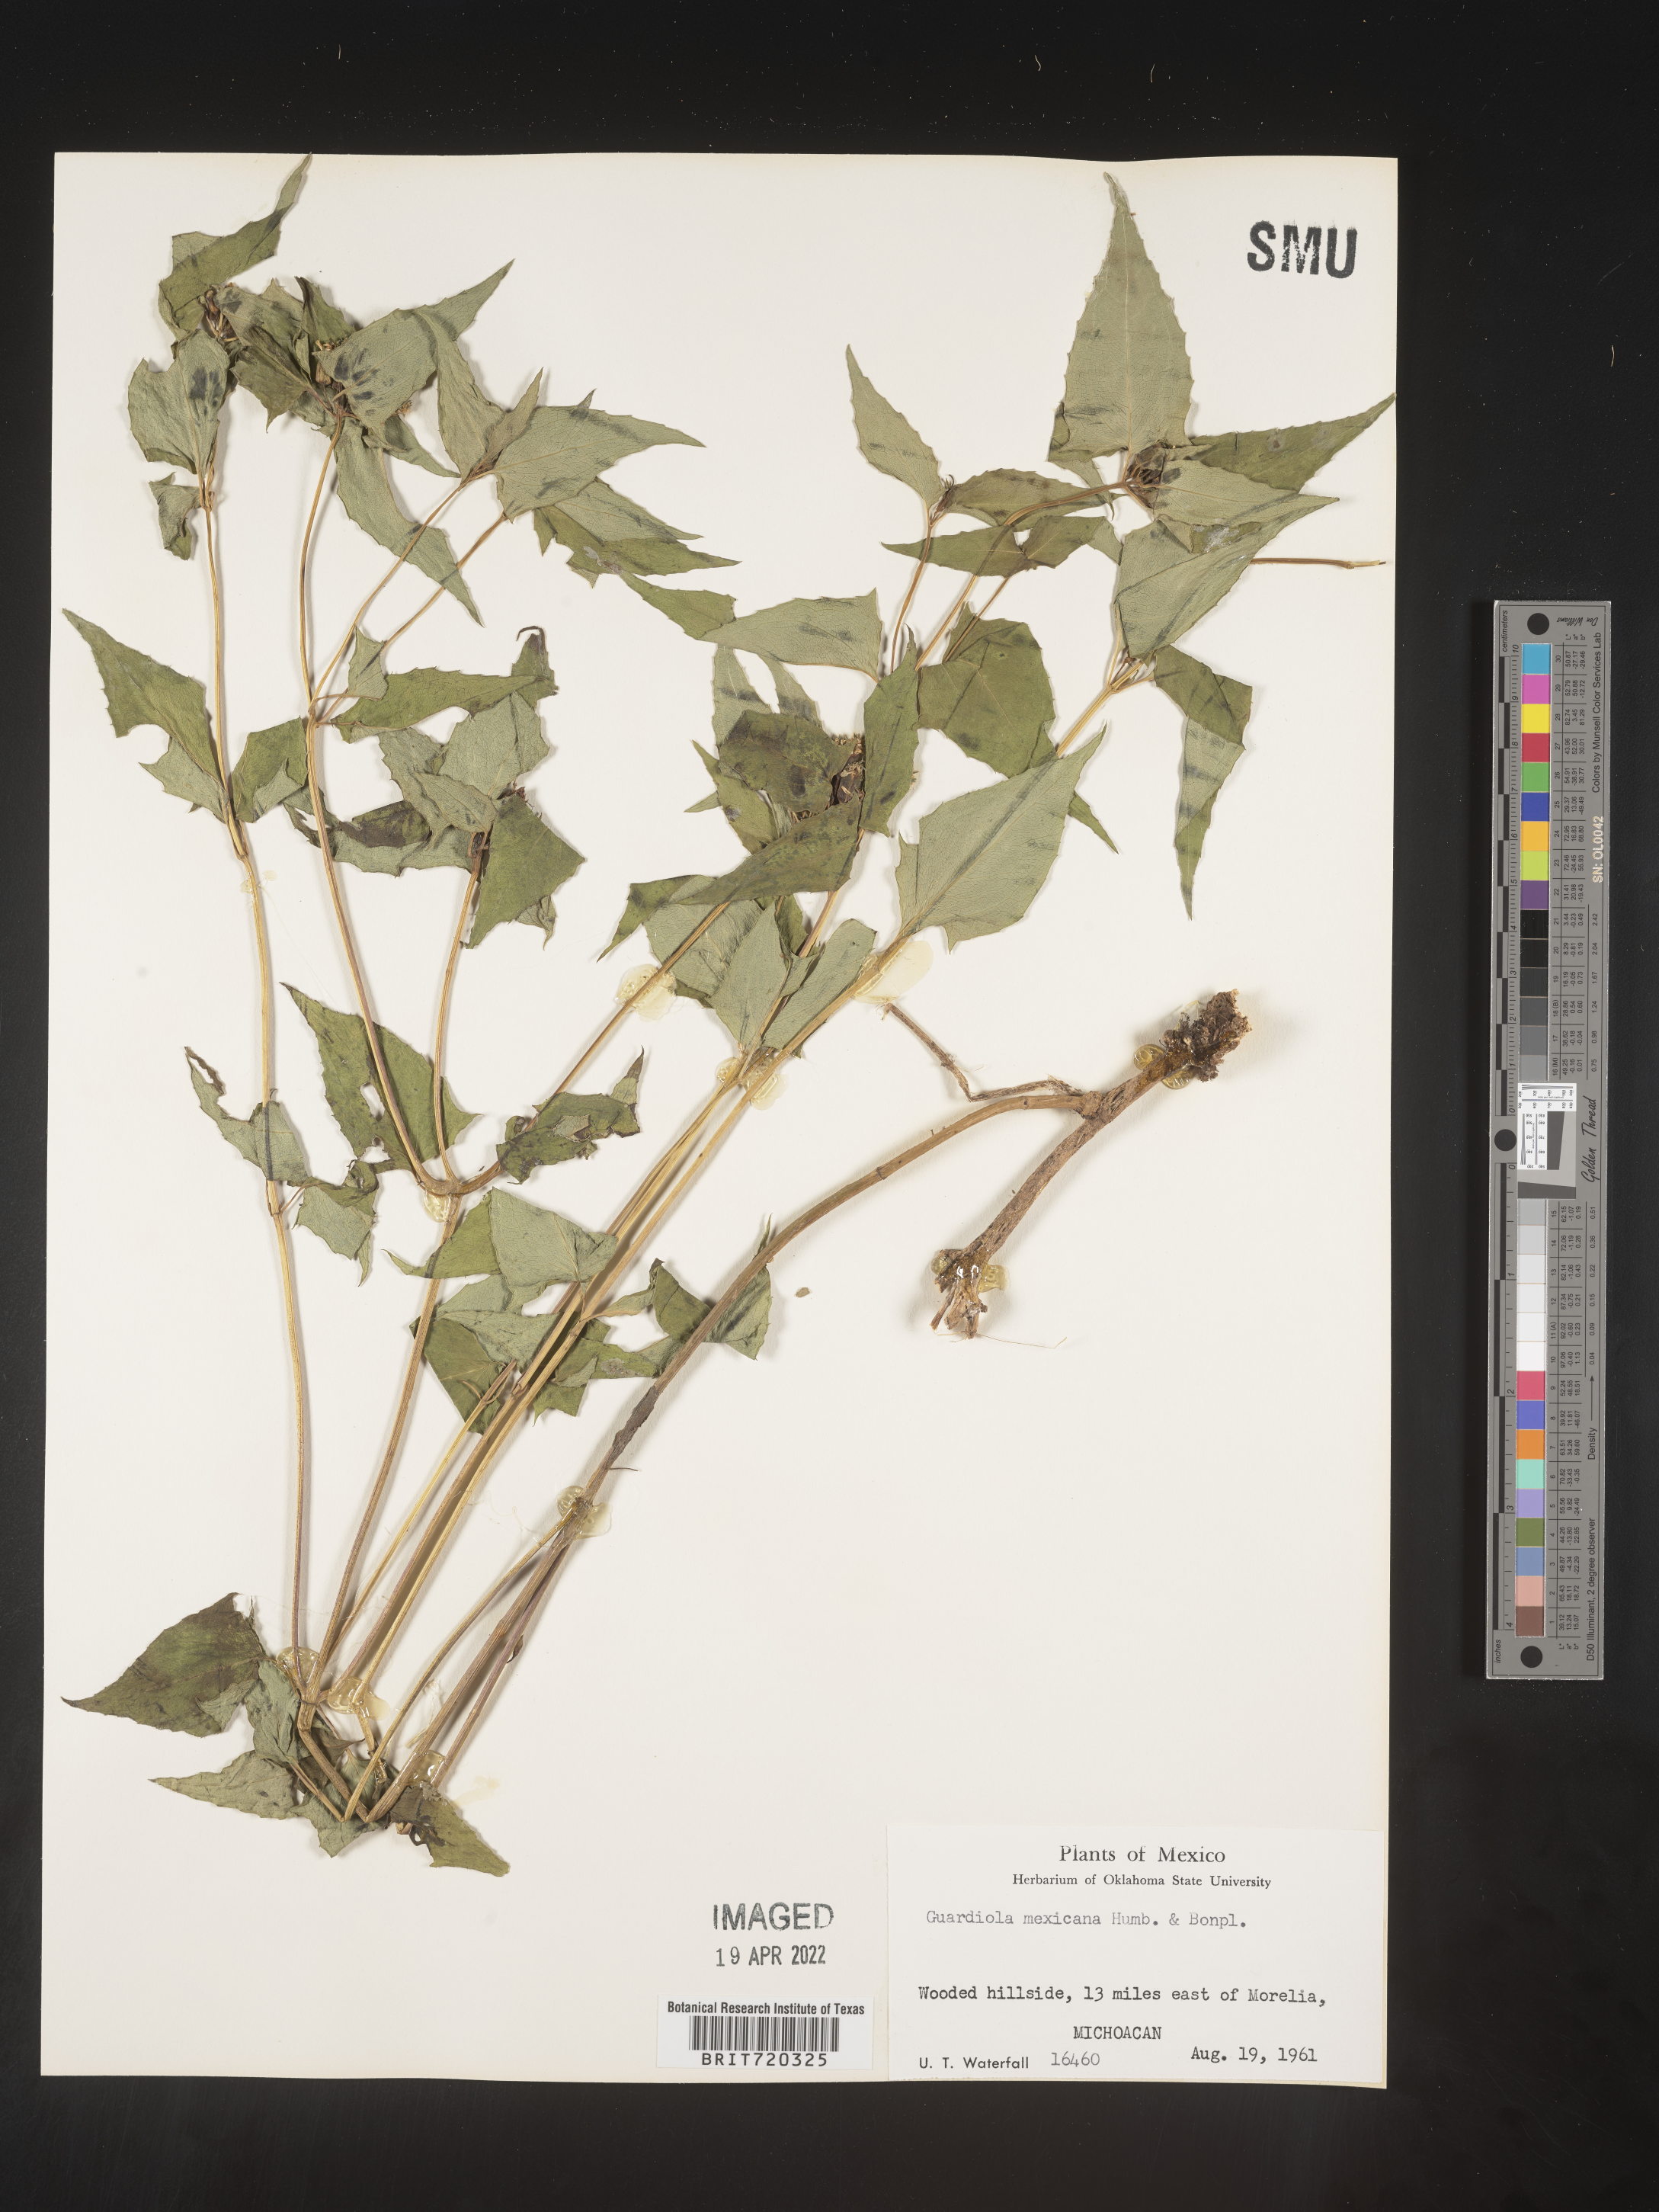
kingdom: Plantae
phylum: Tracheophyta
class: Magnoliopsida
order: Asterales
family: Asteraceae
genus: Guardiola
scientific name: Guardiola
